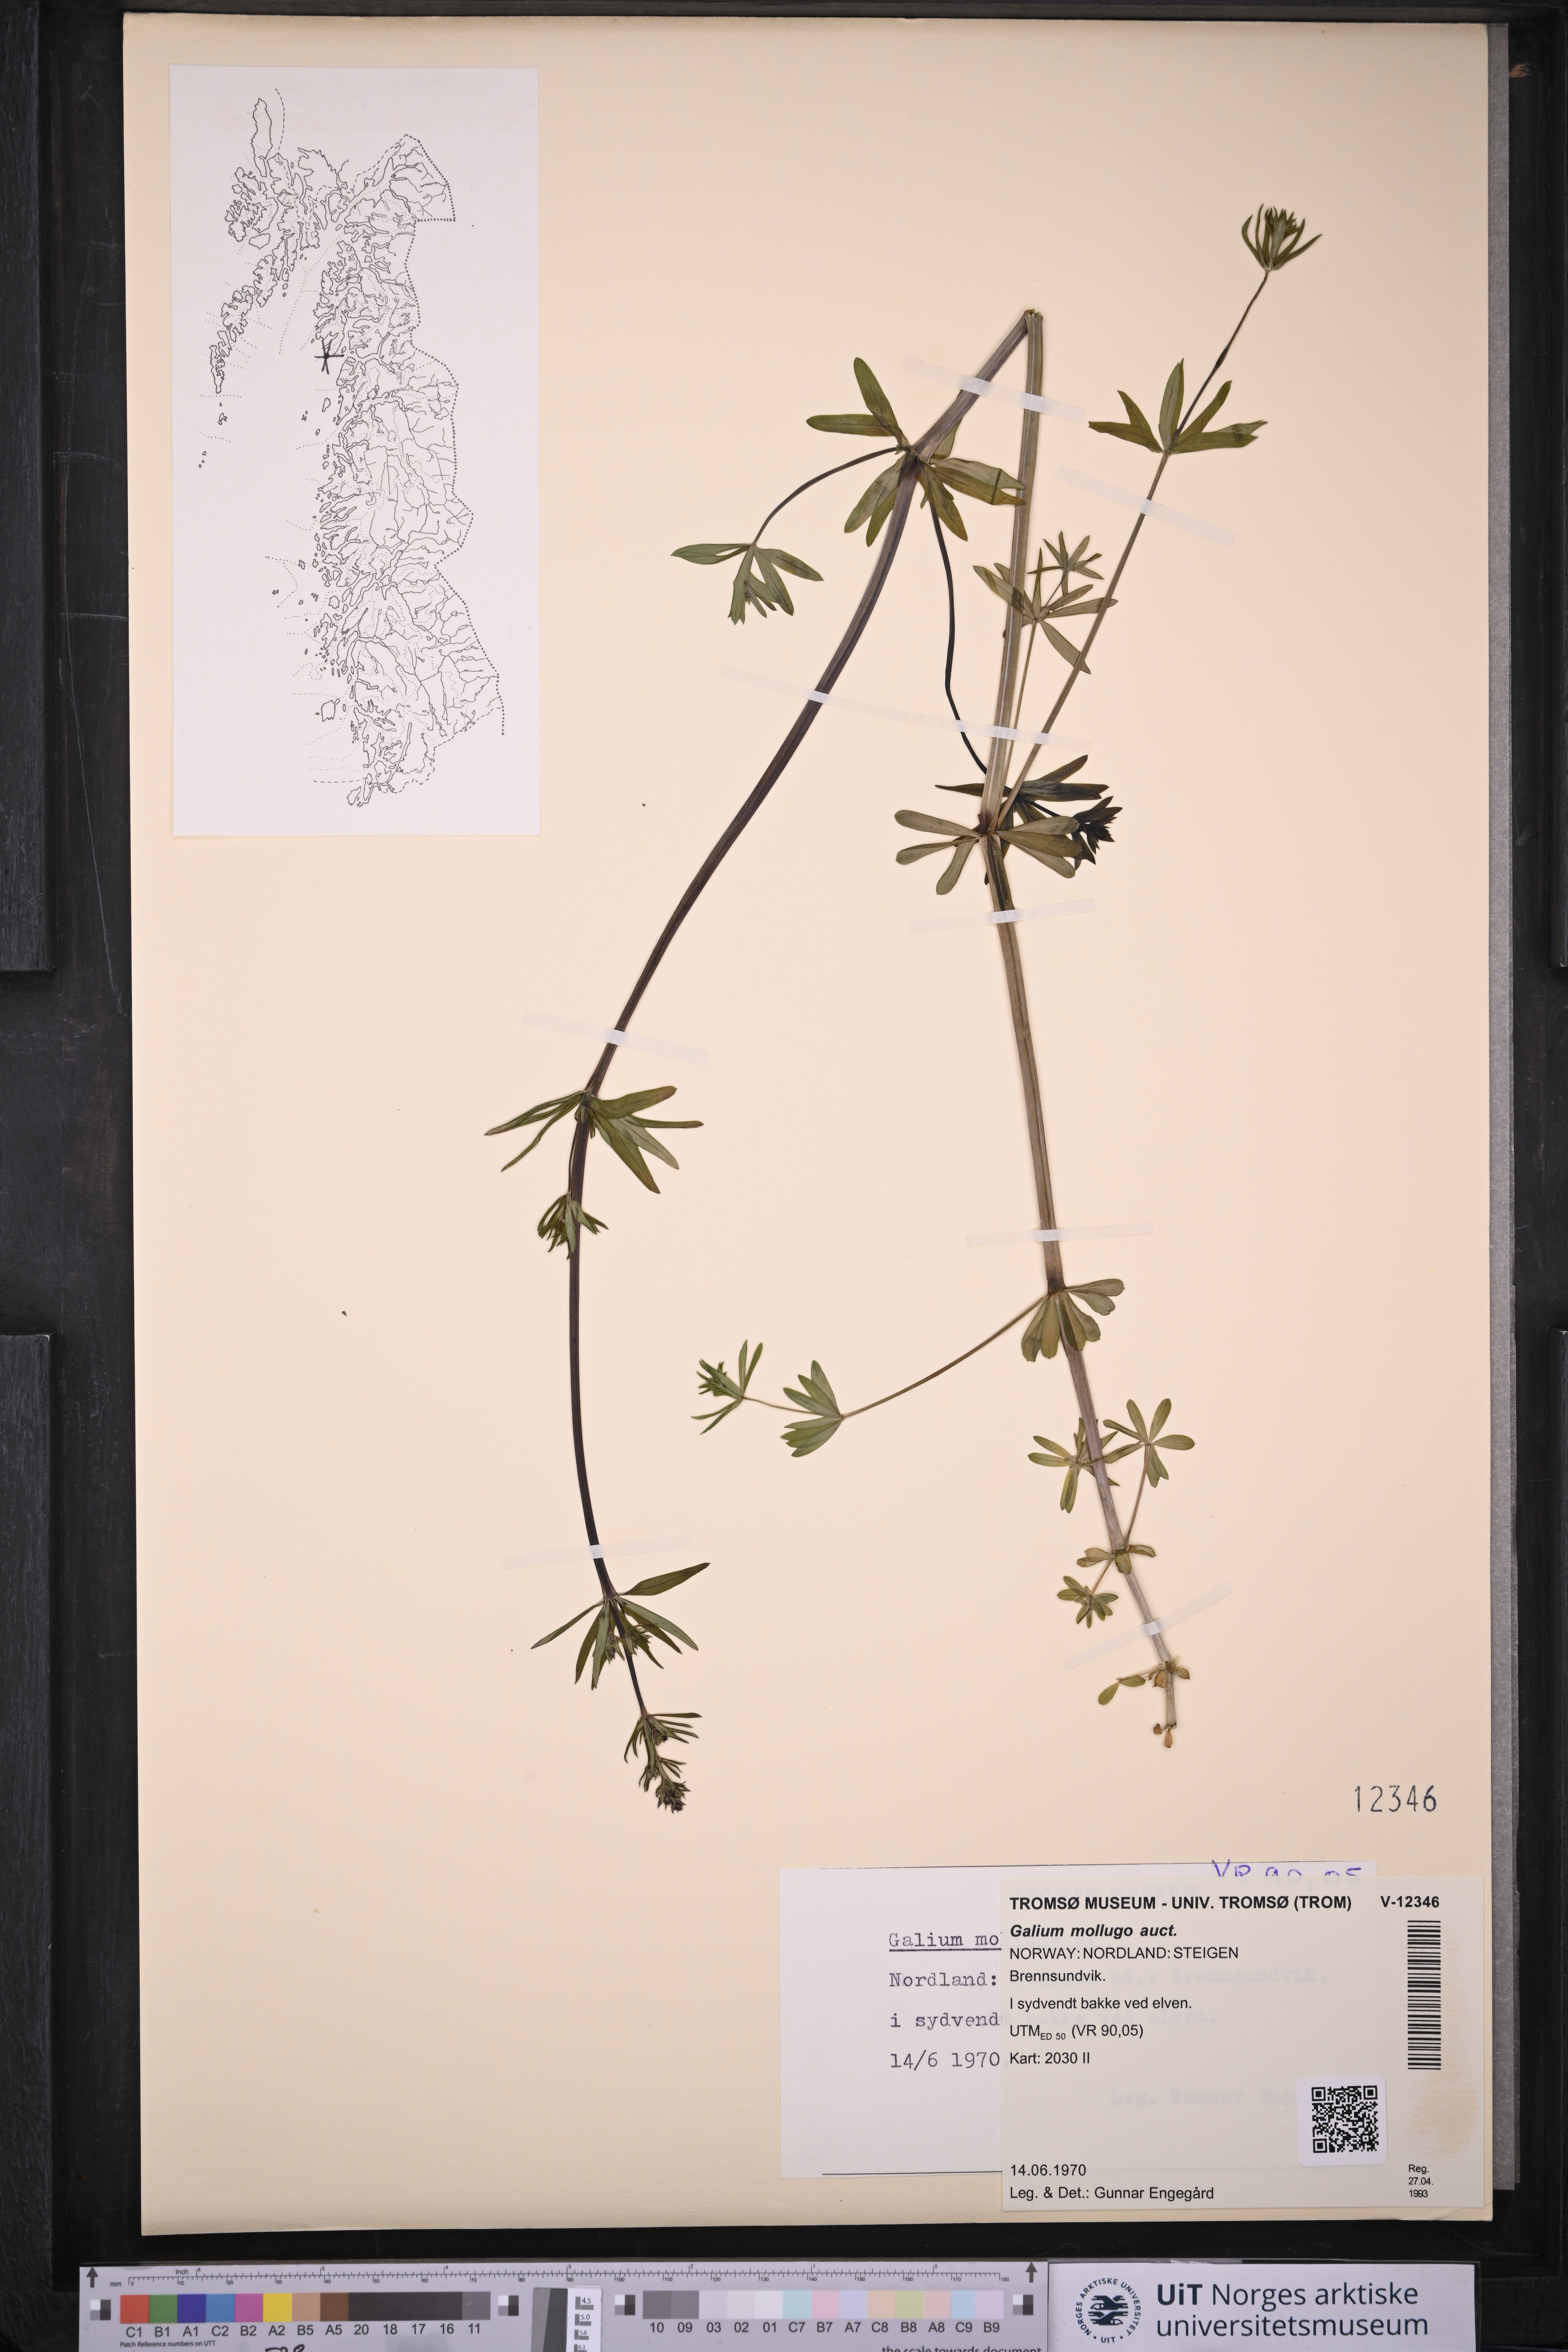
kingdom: Plantae
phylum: Tracheophyta
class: Magnoliopsida
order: Gentianales
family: Rubiaceae
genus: Galium
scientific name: Galium
